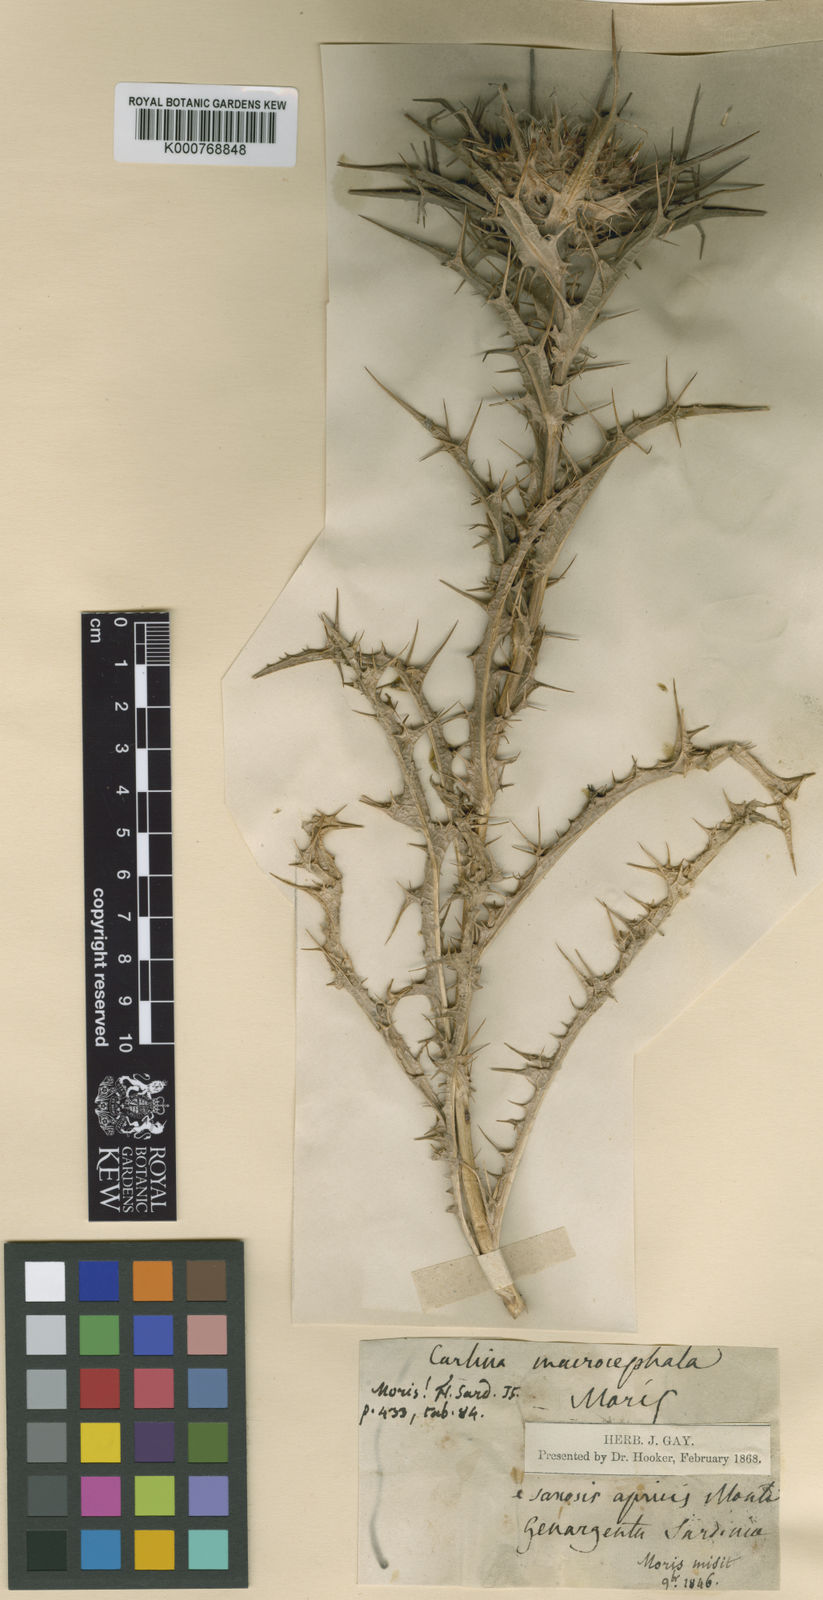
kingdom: Plantae
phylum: Tracheophyta
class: Magnoliopsida
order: Asterales
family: Asteraceae
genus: Chamaeleon
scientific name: Chamaeleon macrocephalus
